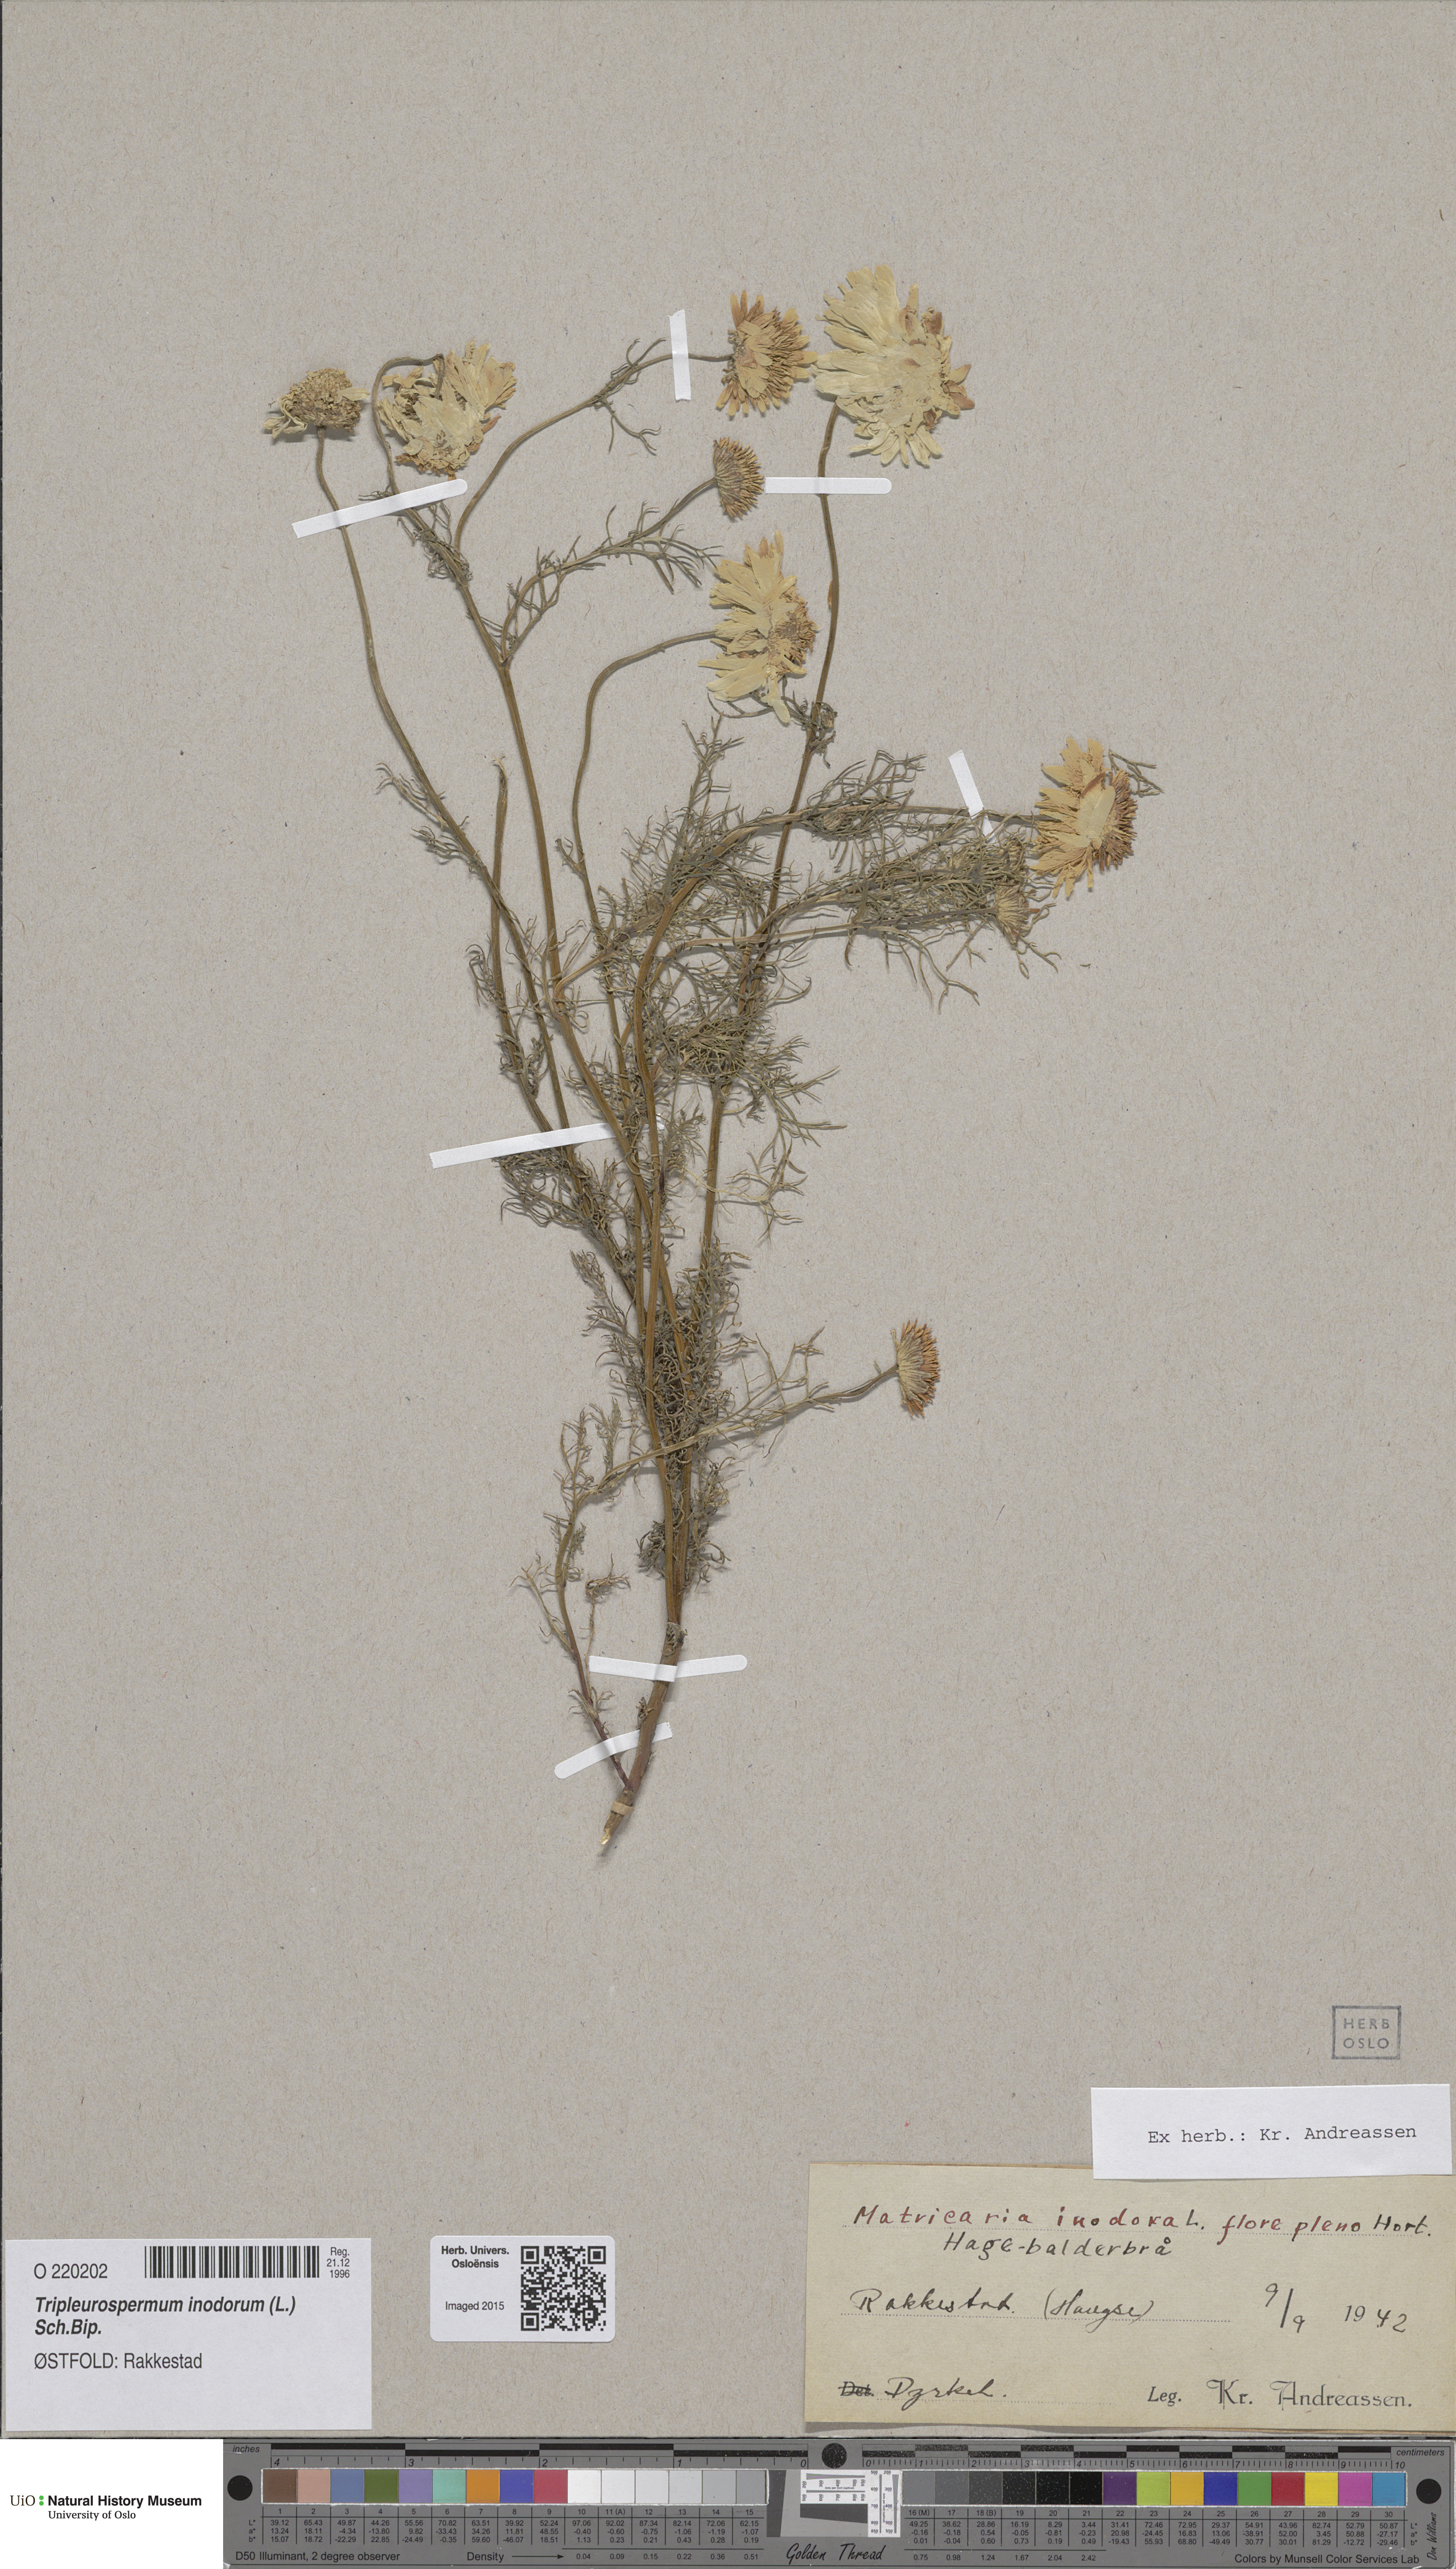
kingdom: Plantae
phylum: Tracheophyta
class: Magnoliopsida
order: Asterales
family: Asteraceae
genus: Tripleurospermum
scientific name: Tripleurospermum inodorum
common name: Scentless mayweed
